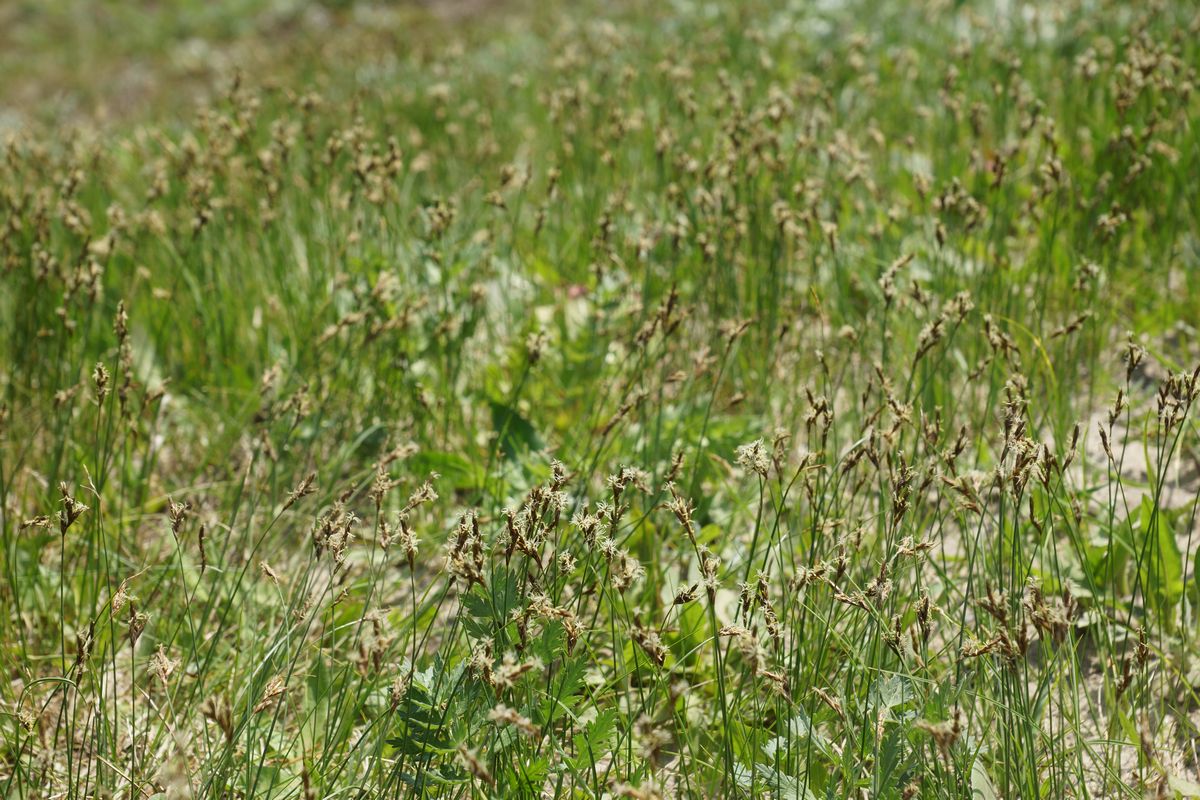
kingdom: Plantae
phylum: Tracheophyta
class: Liliopsida
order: Poales
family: Cyperaceae
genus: Carex
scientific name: Carex
